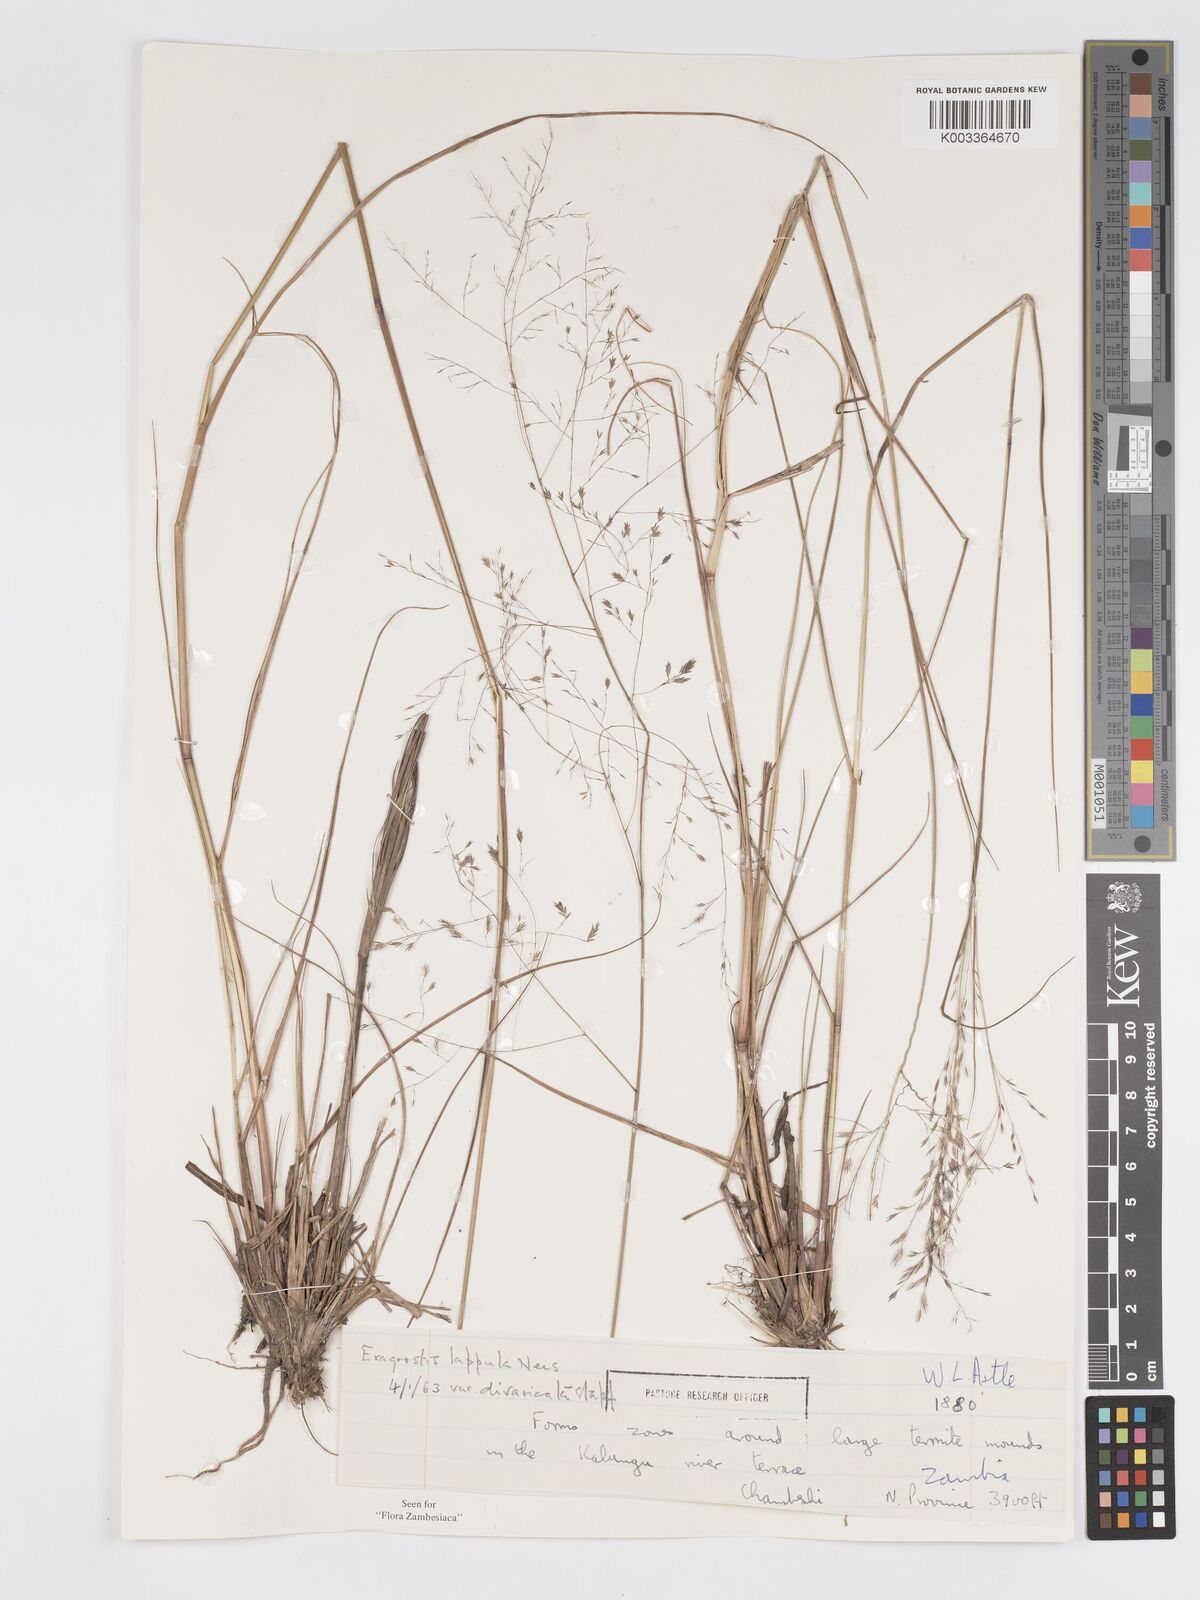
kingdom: Plantae
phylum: Tracheophyta
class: Liliopsida
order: Poales
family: Poaceae
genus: Eragrostis
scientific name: Eragrostis lappula
